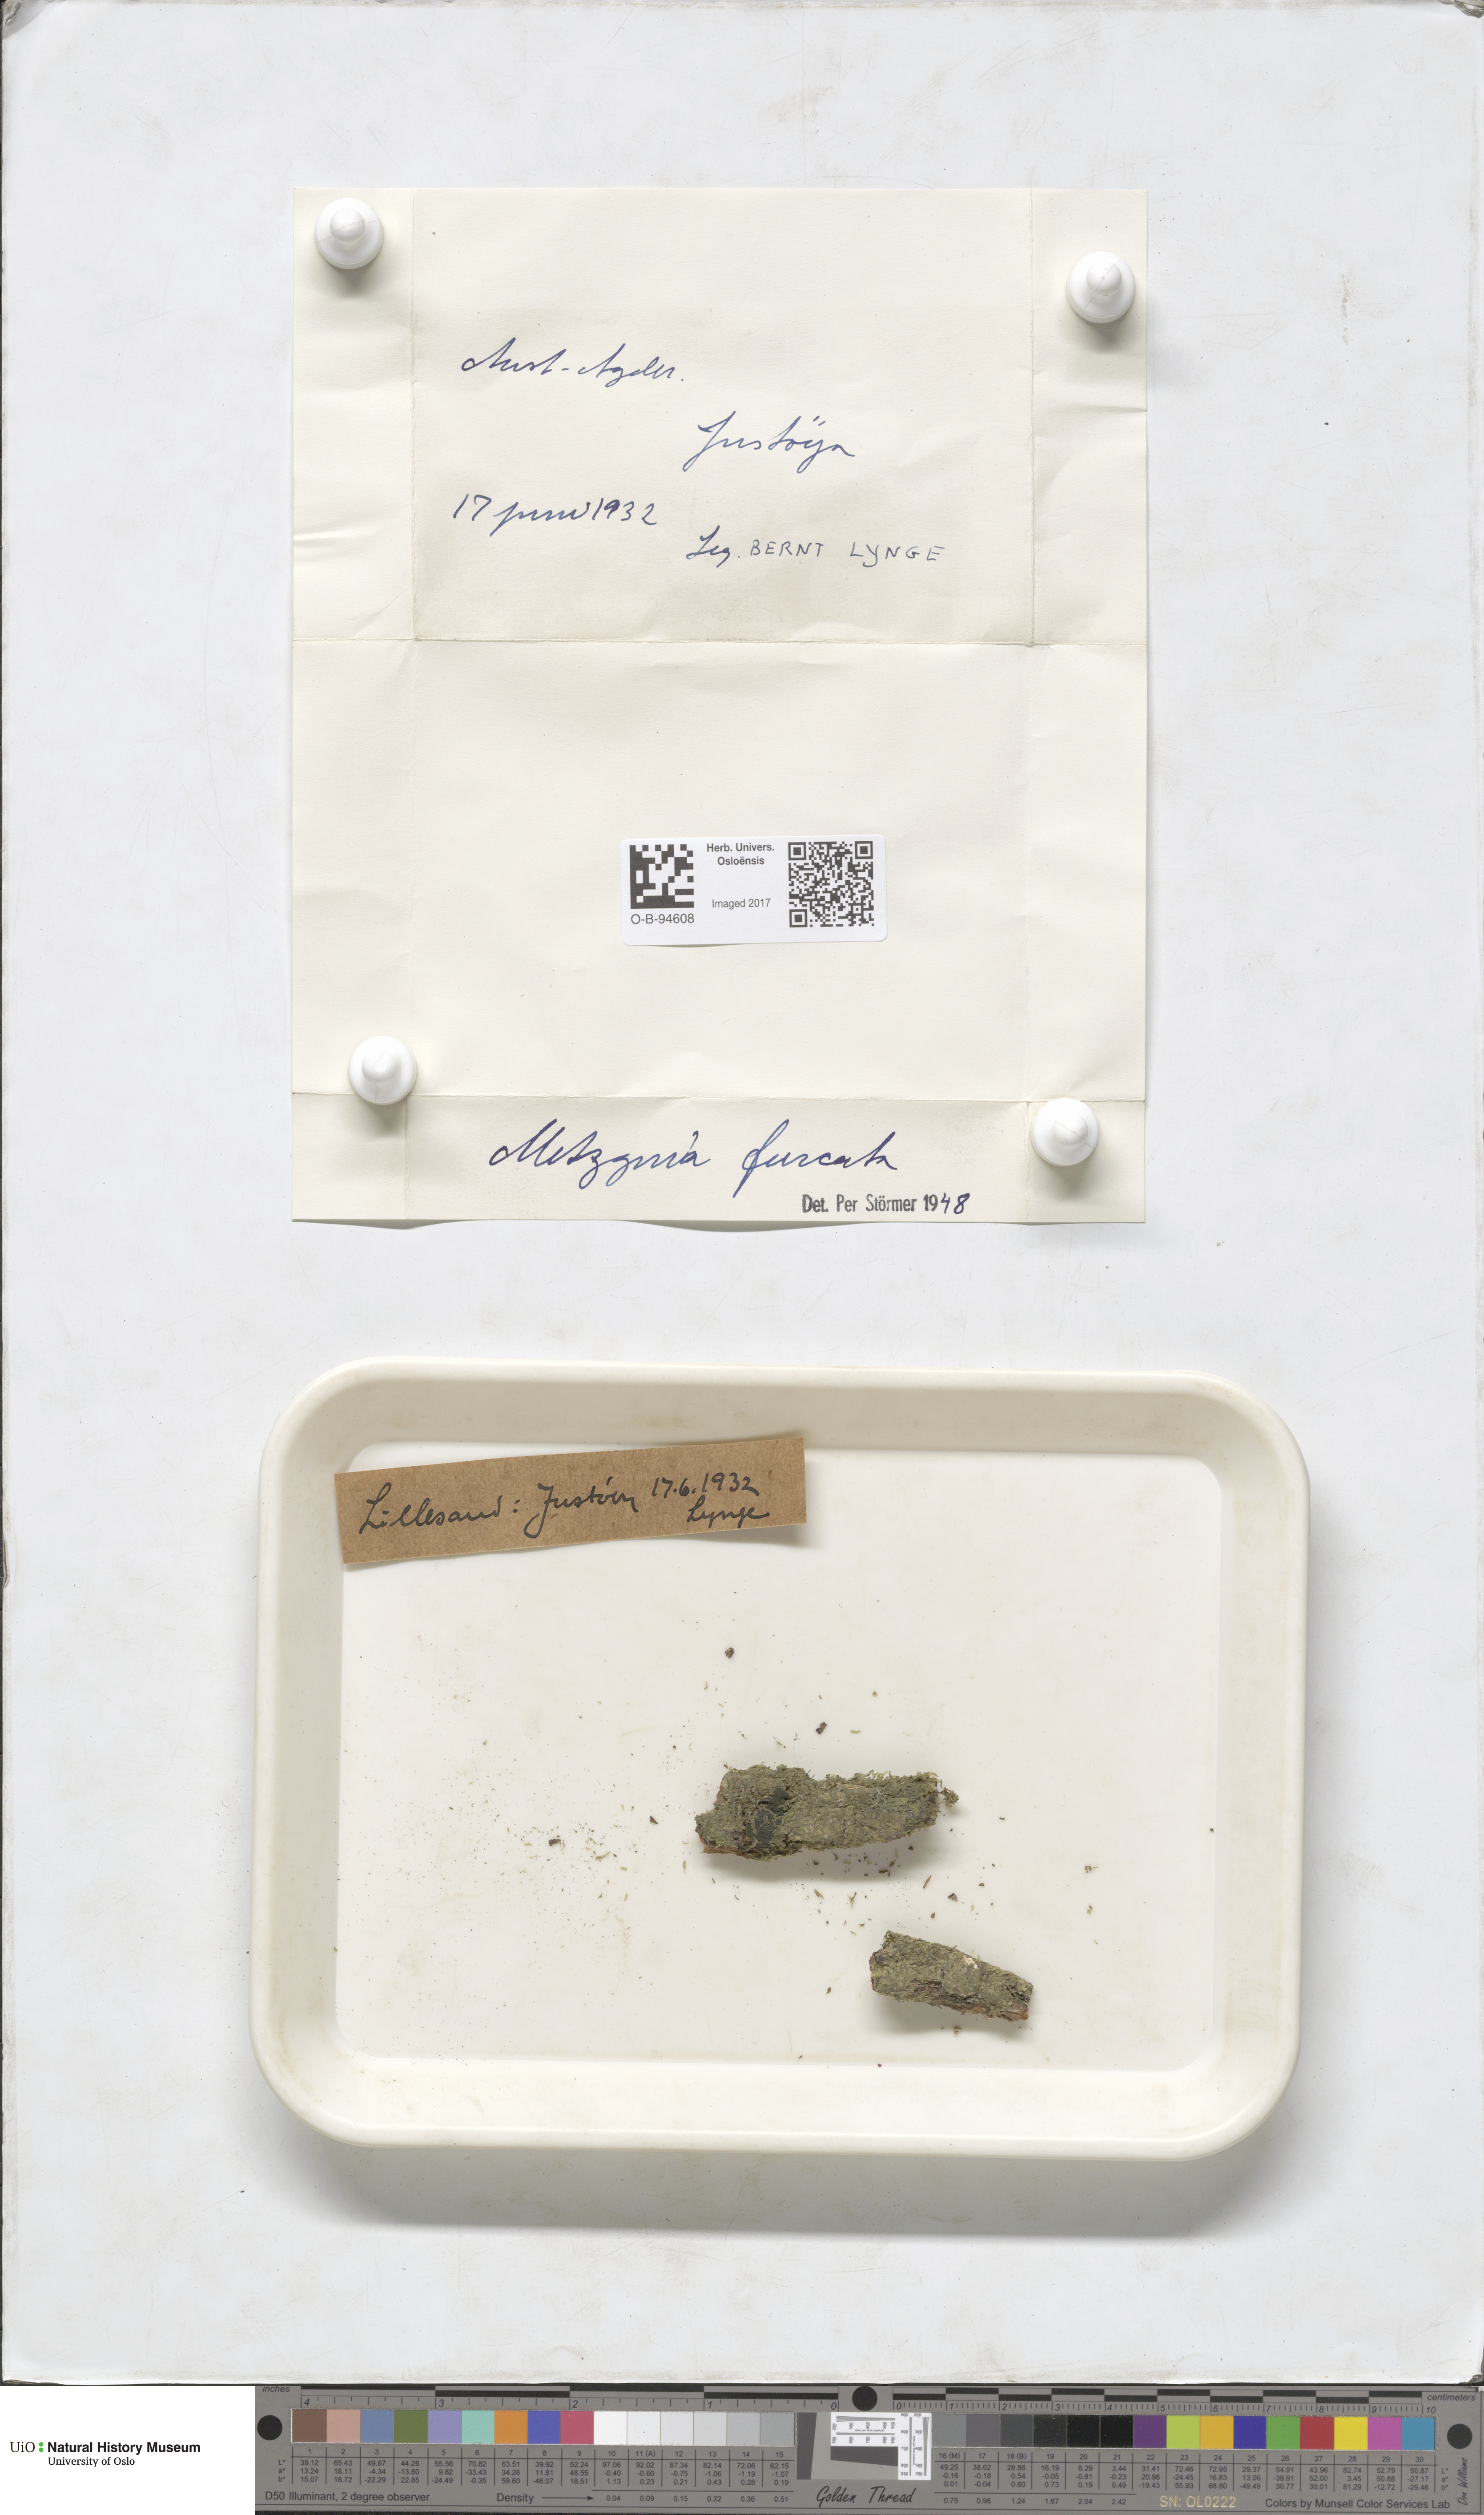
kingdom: Plantae
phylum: Marchantiophyta
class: Jungermanniopsida
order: Metzgeriales
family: Metzgeriaceae
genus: Metzgeria
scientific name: Metzgeria furcata
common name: Forked veilwort
